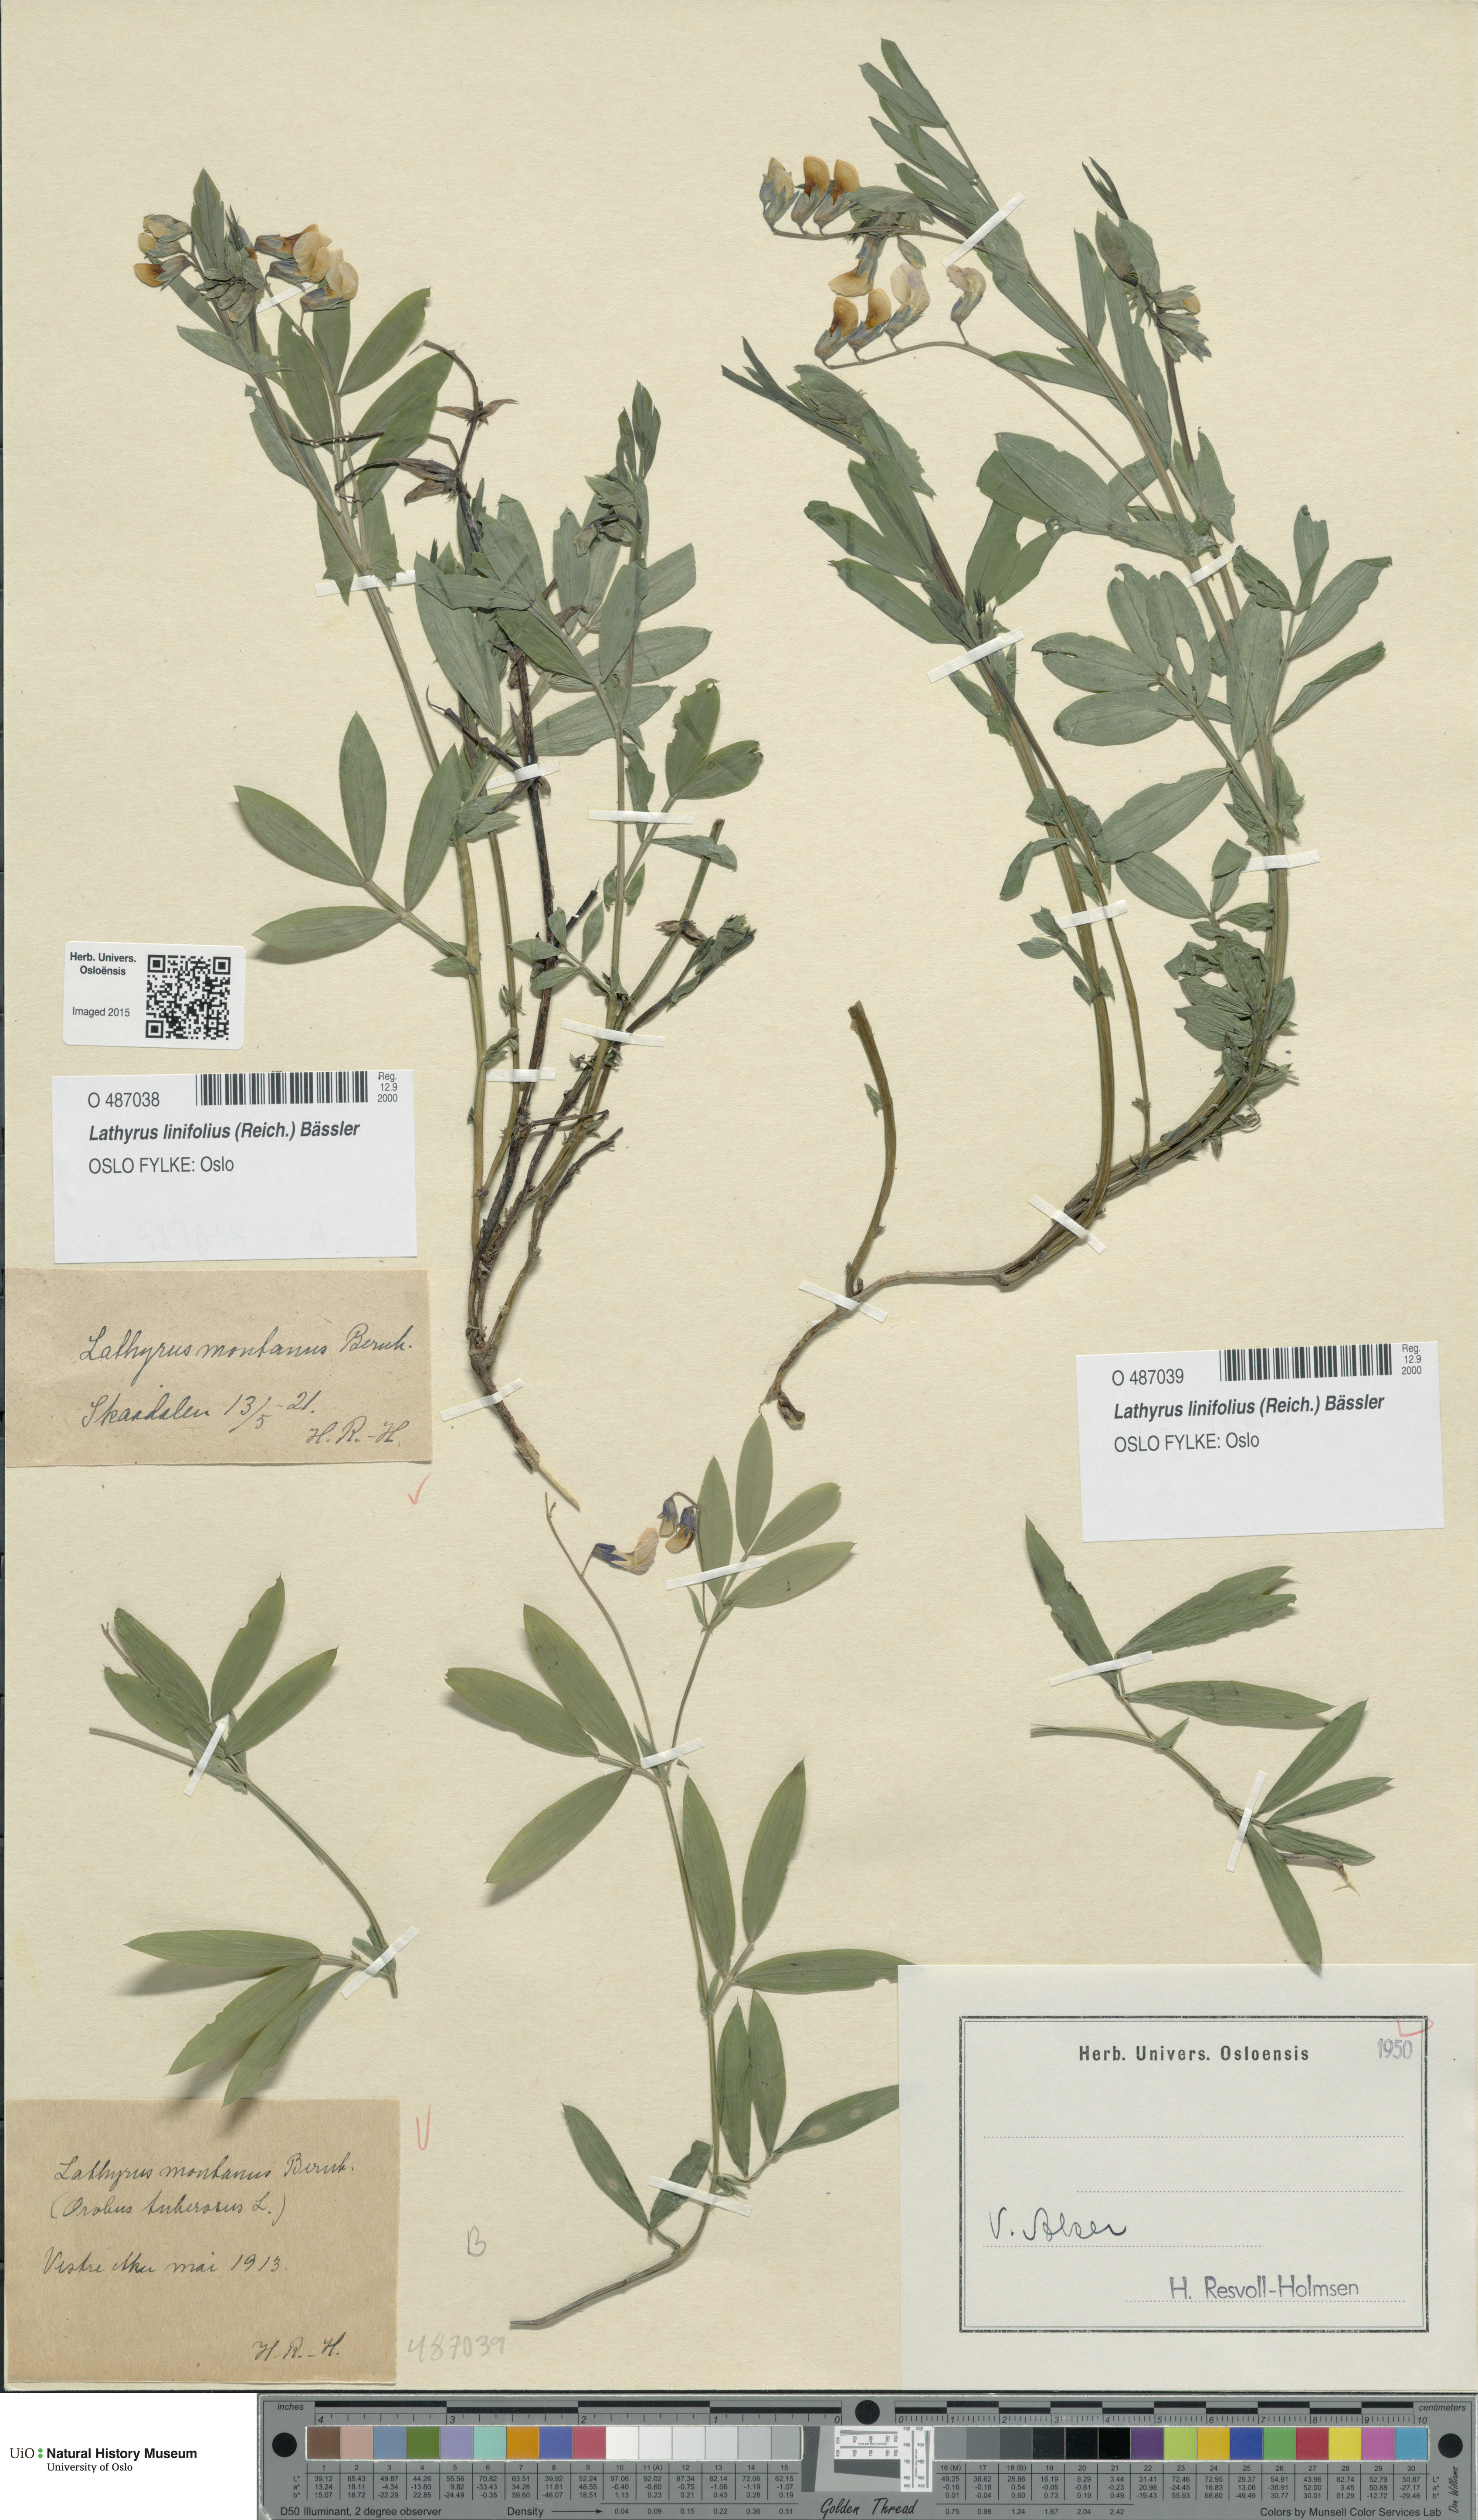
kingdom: Plantae
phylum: Tracheophyta
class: Magnoliopsida
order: Fabales
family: Fabaceae
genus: Lathyrus
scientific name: Lathyrus linifolius
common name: Bitter-vetch
